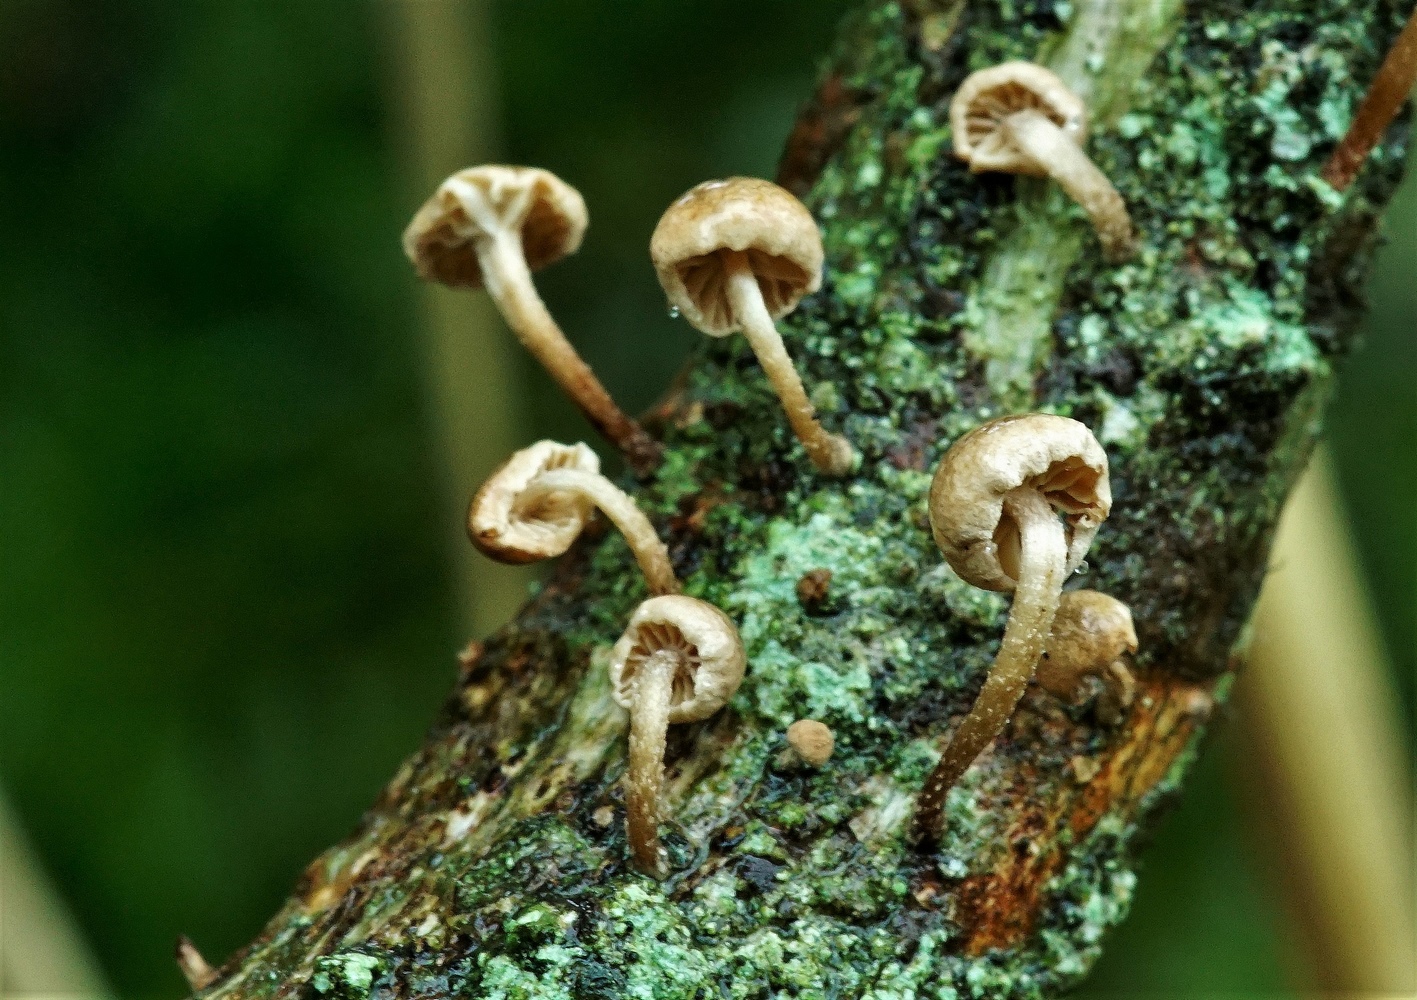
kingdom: Fungi
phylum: Basidiomycota
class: Agaricomycetes
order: Agaricales
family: Omphalotaceae
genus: Collybiopsis
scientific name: Collybiopsis ramealis
